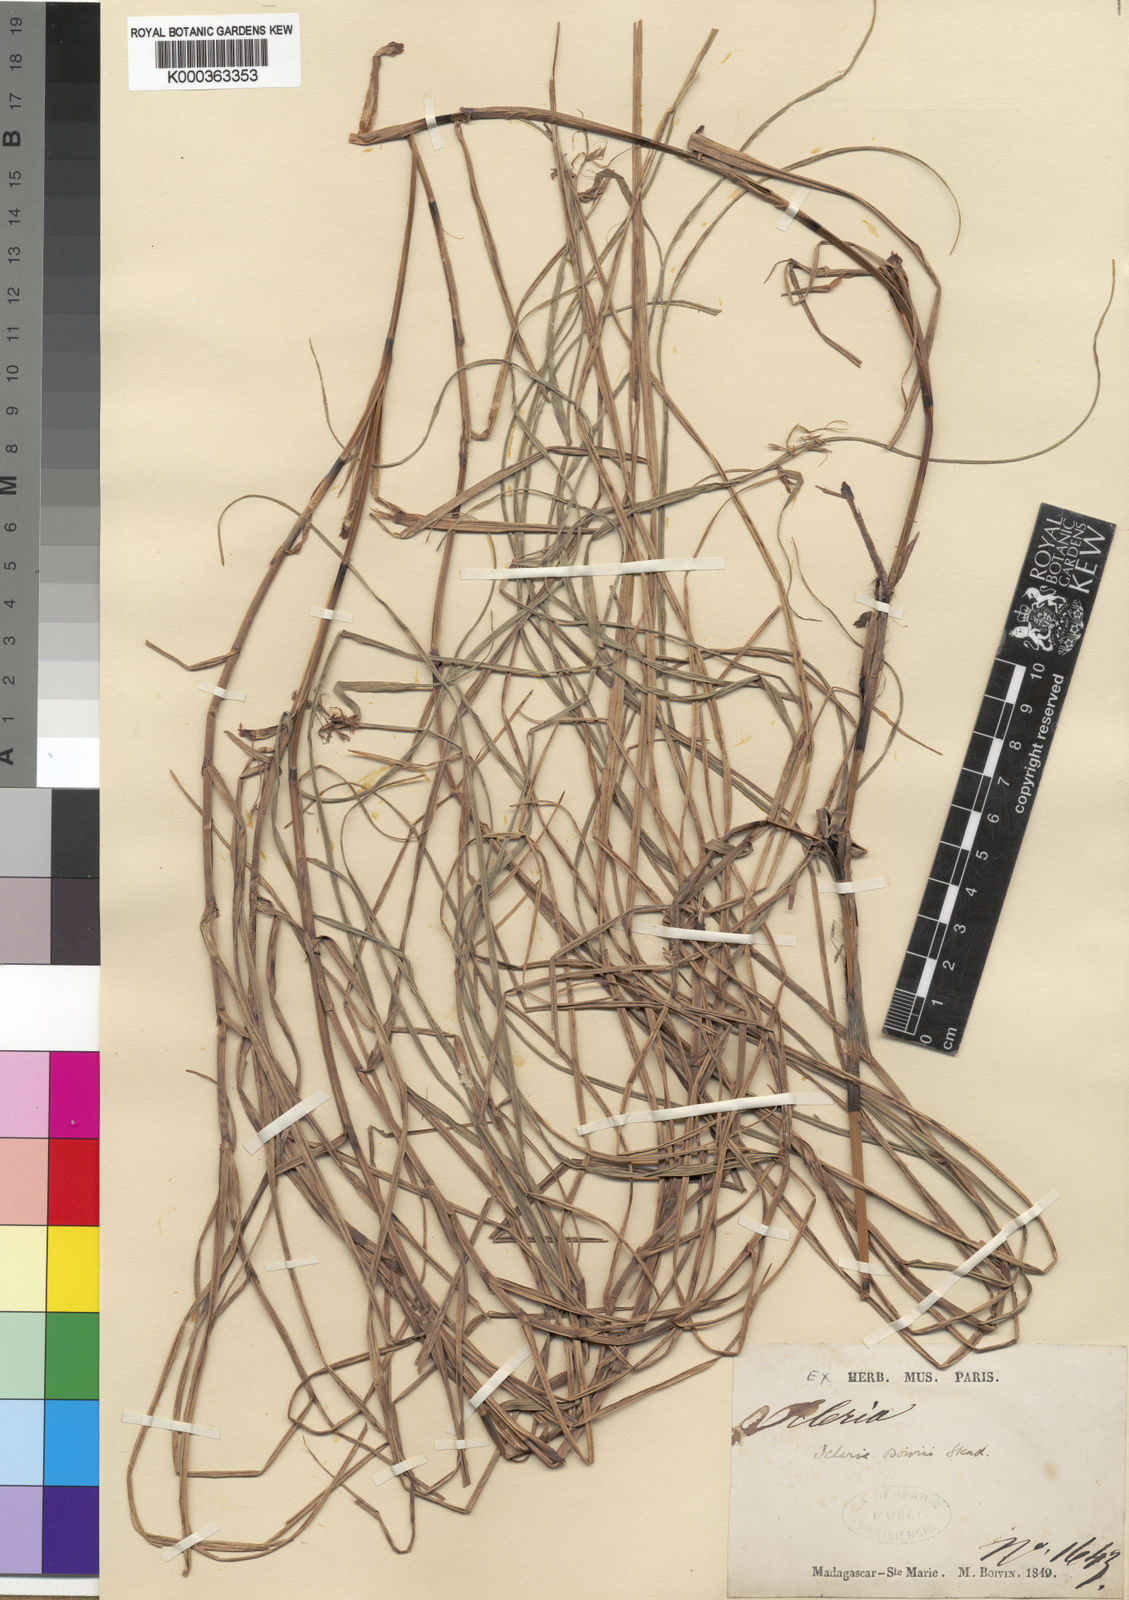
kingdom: Plantae
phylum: Tracheophyta
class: Liliopsida
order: Poales
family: Cyperaceae
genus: Scleria
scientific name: Scleria boivinii
